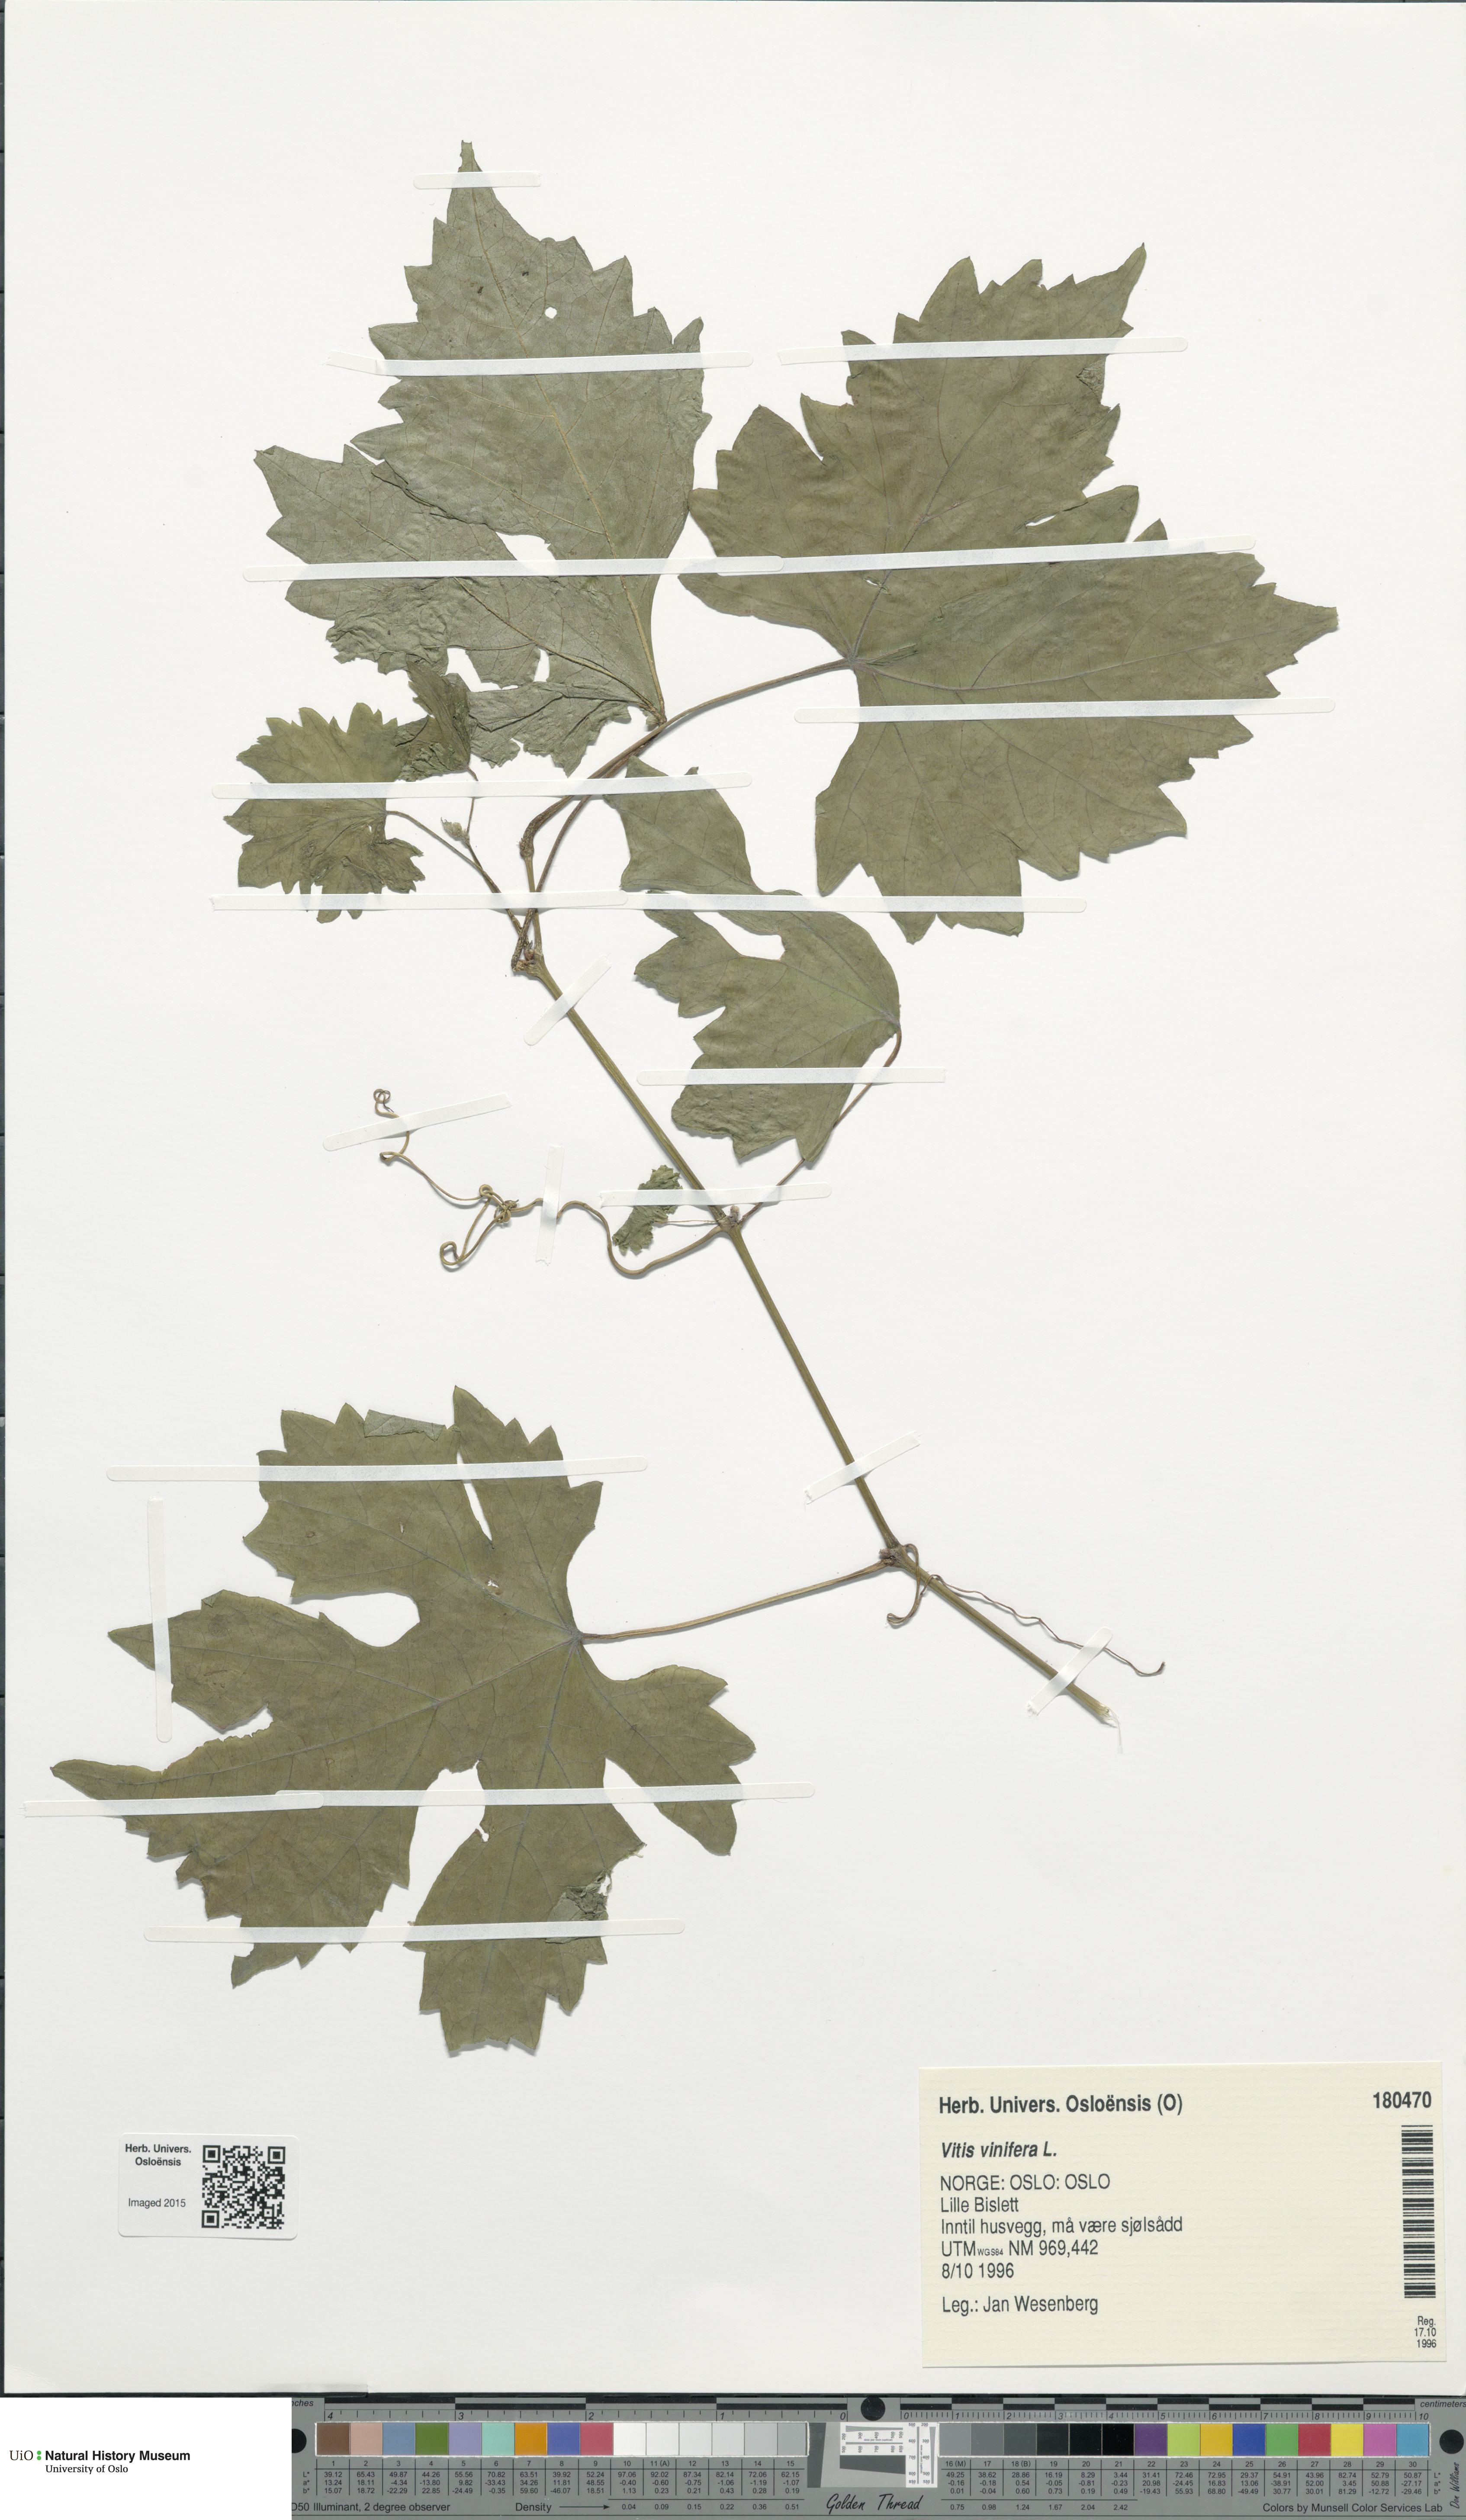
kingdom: Plantae
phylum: Tracheophyta
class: Magnoliopsida
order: Vitales
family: Vitaceae
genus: Vitis
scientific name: Vitis vinifera
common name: Grape-vine
